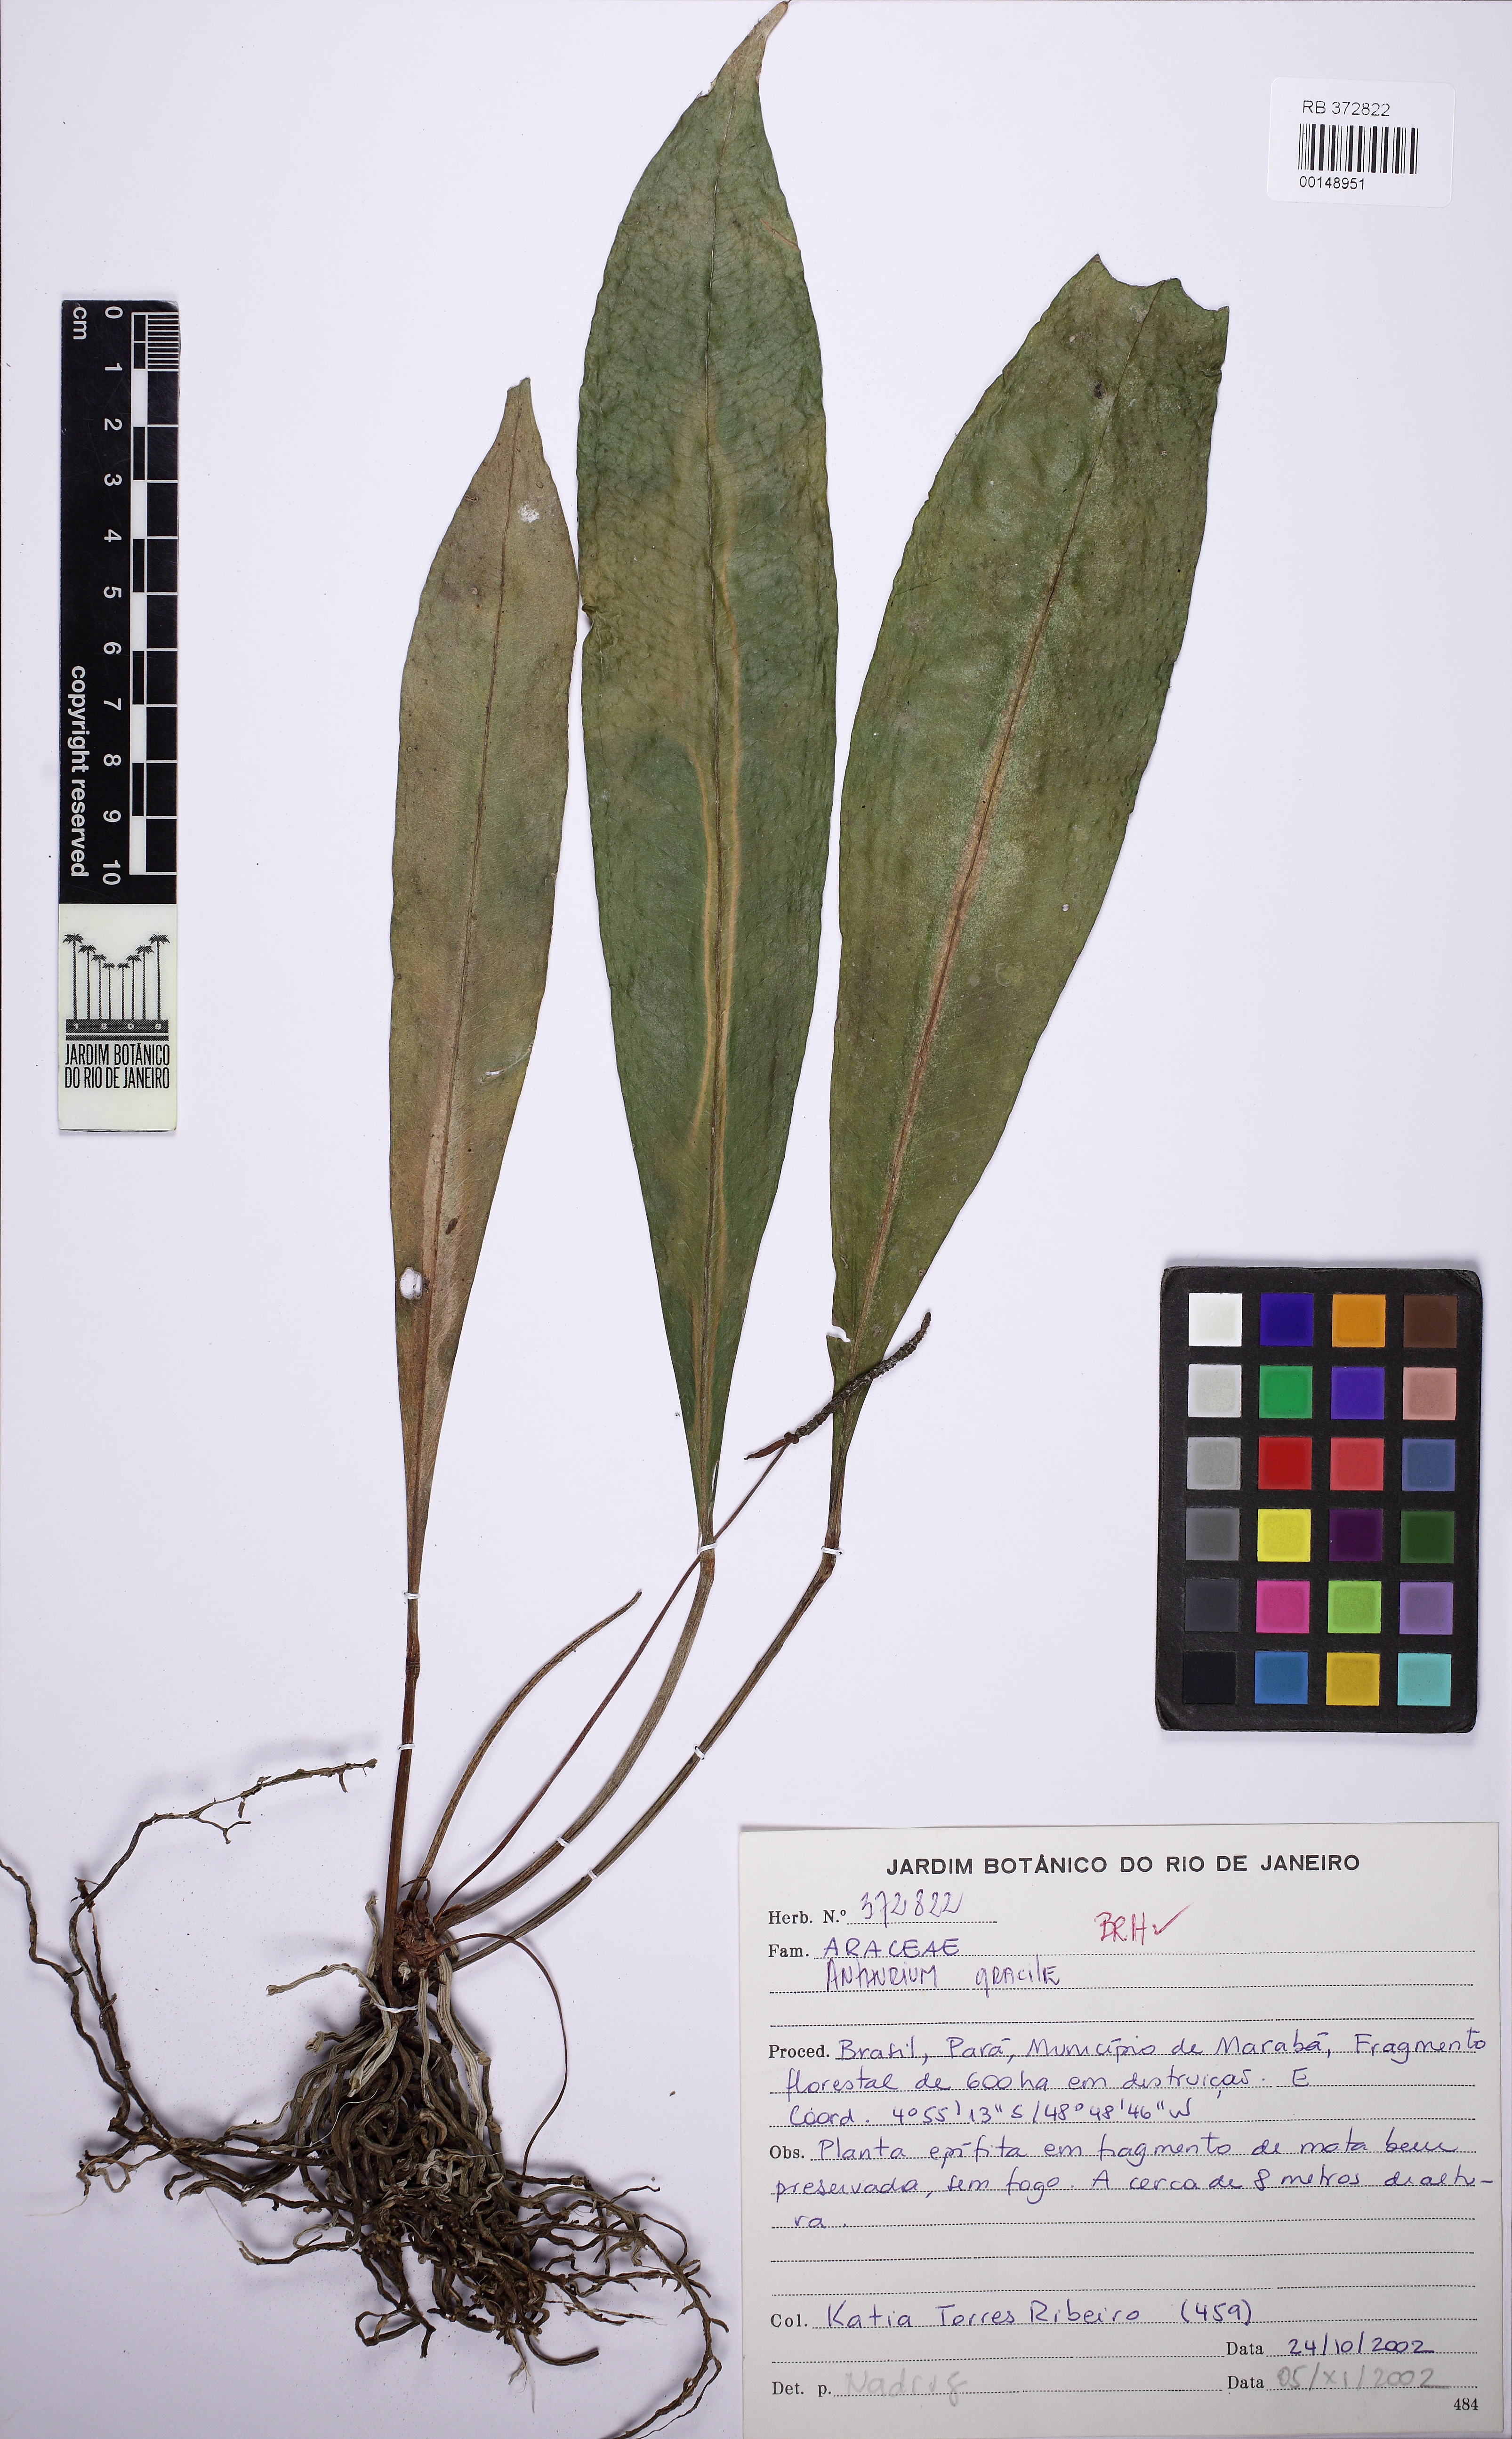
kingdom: Plantae
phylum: Tracheophyta
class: Liliopsida
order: Alismatales
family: Araceae
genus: Anthurium
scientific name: Anthurium gracile
